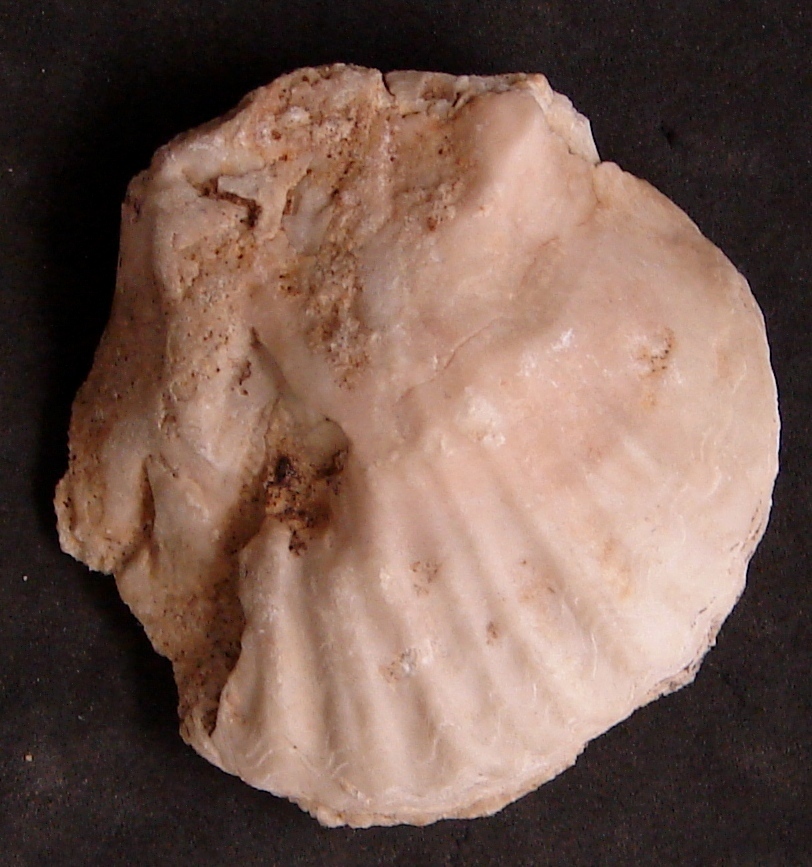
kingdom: Animalia
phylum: Mollusca
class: Bivalvia
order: Ostreida
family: Ostreidae
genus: Ostrea
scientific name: Ostrea
